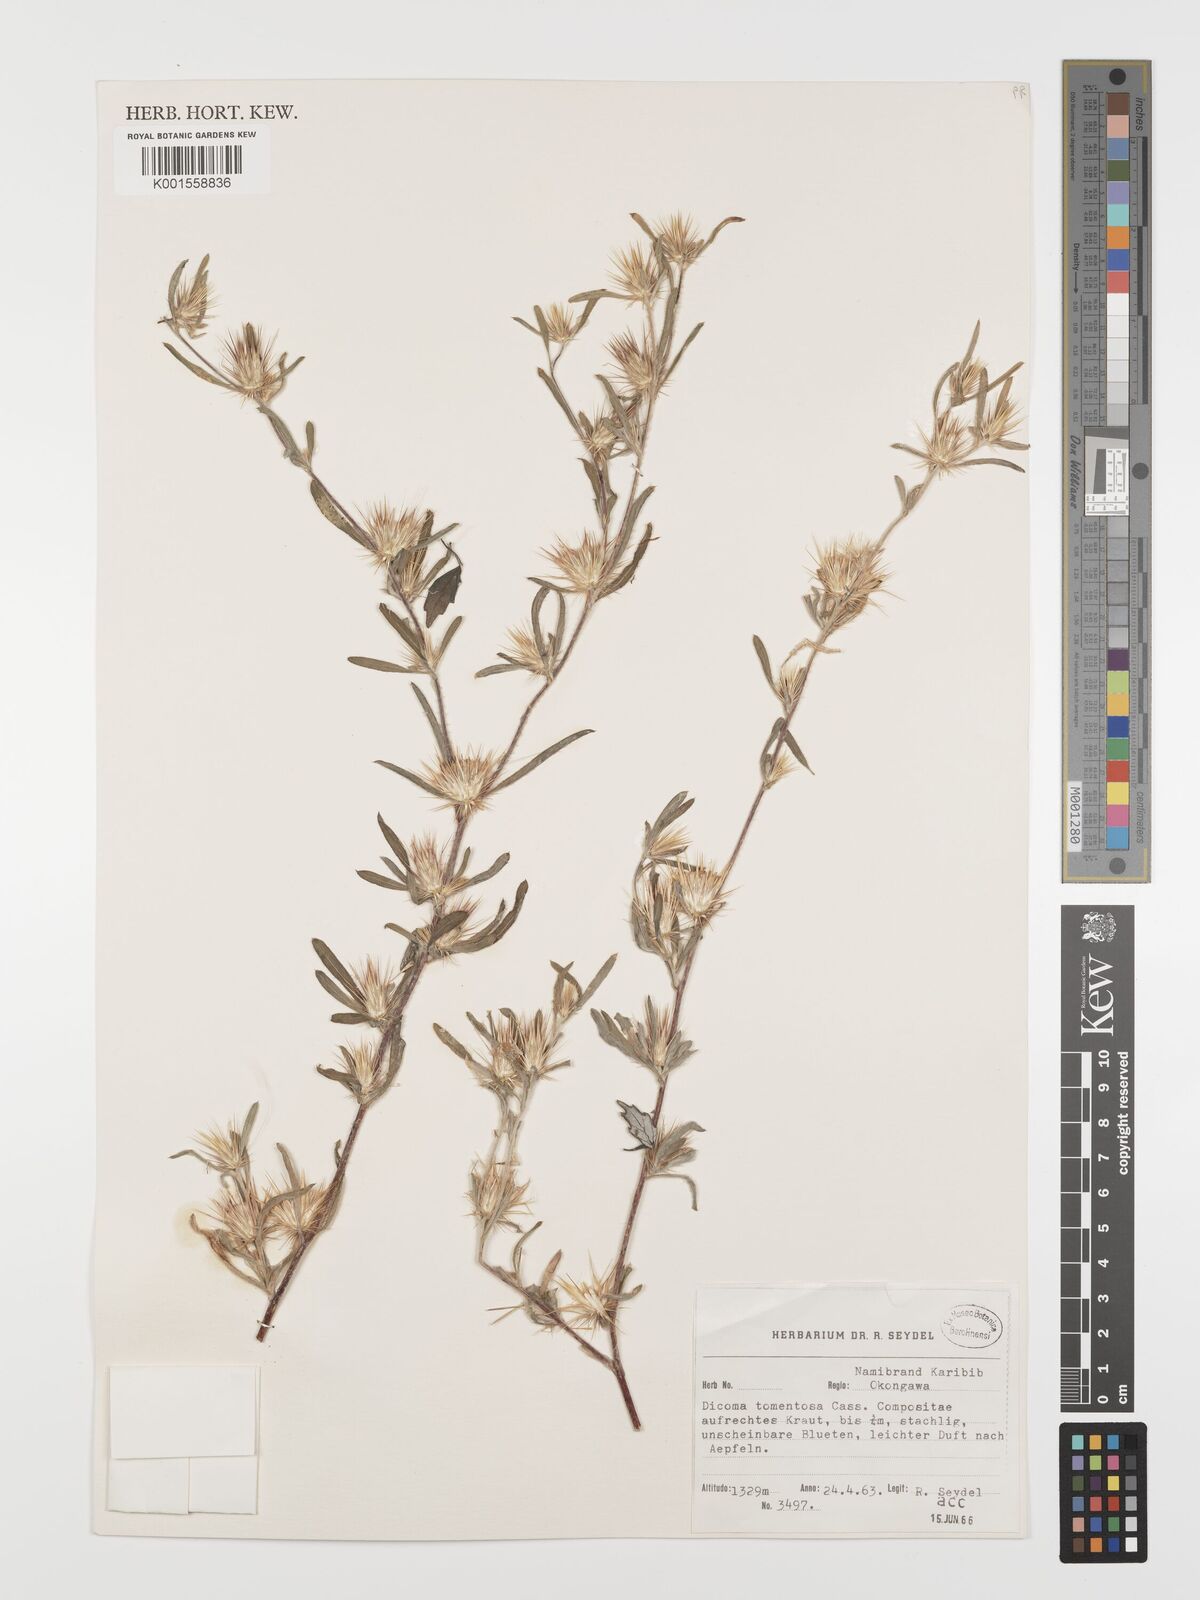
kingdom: Plantae
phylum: Tracheophyta
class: Magnoliopsida
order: Asterales
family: Asteraceae
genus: Dicoma
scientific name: Dicoma tomentosa
